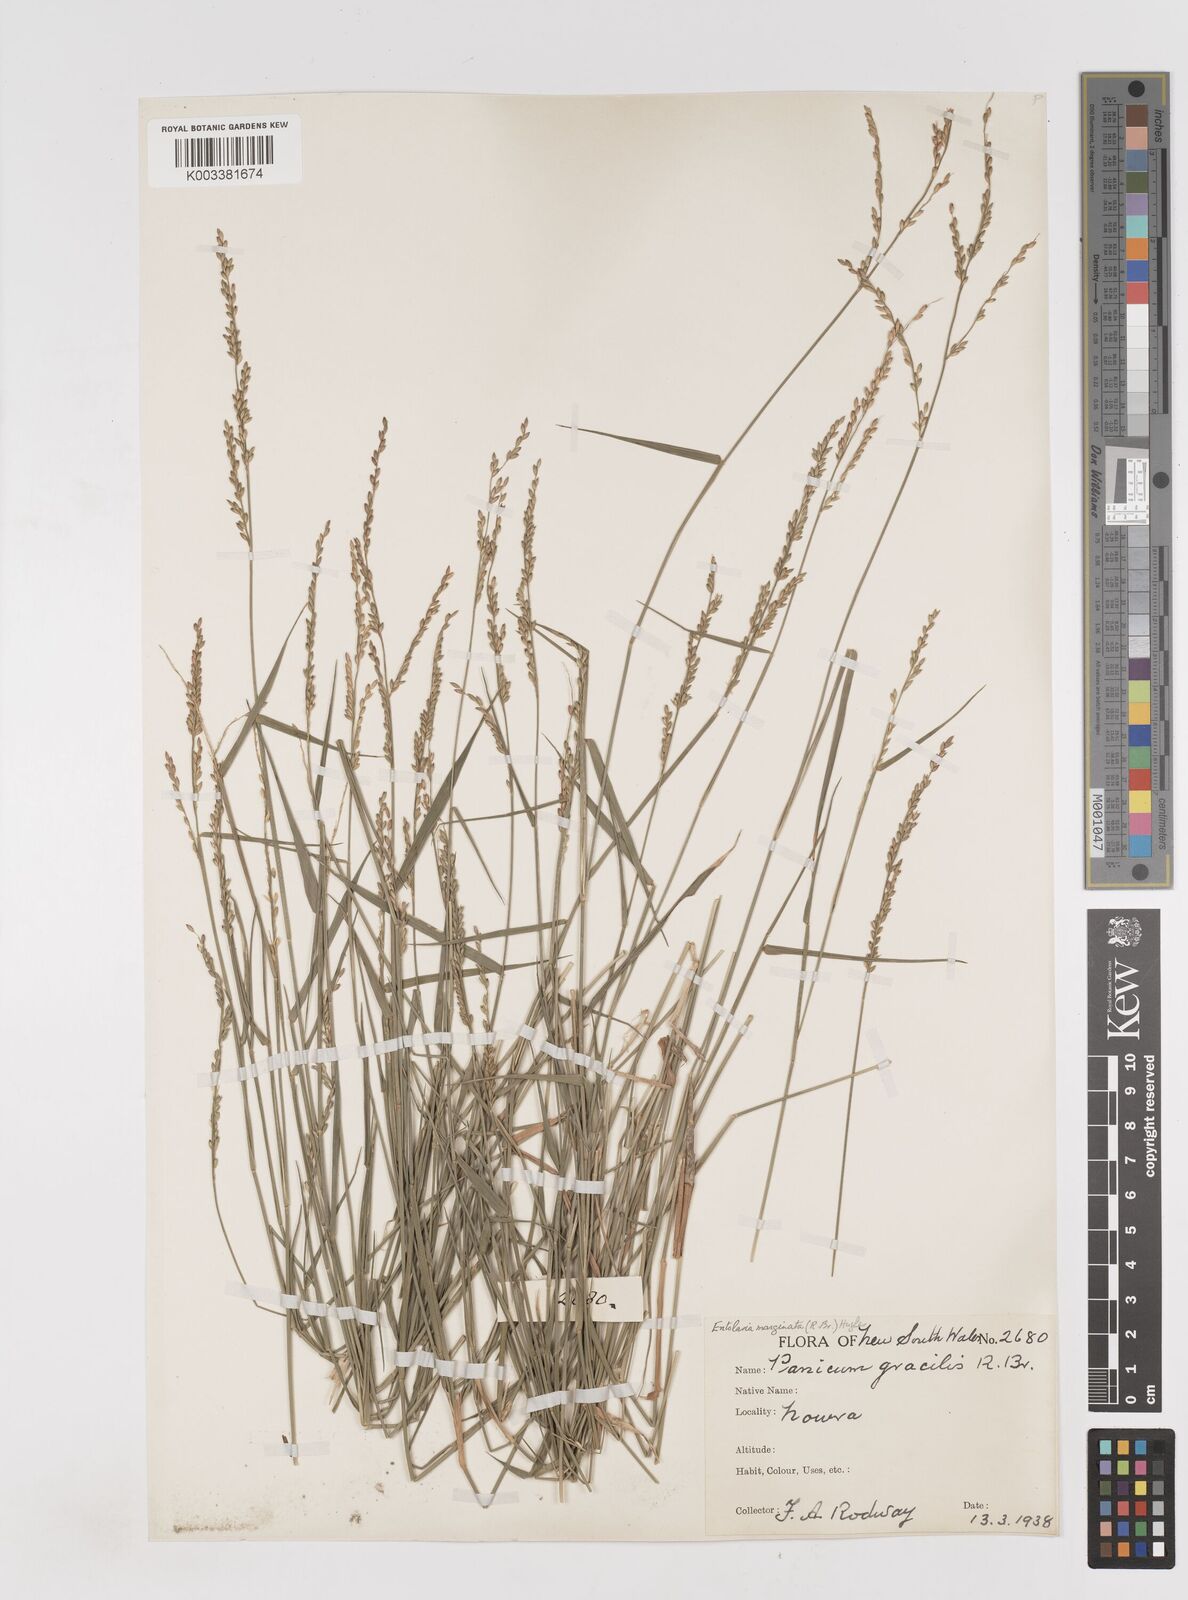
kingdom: Plantae
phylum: Tracheophyta
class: Liliopsida
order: Poales
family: Poaceae
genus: Entolasia
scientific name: Entolasia marginata
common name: Australian panicgrass
